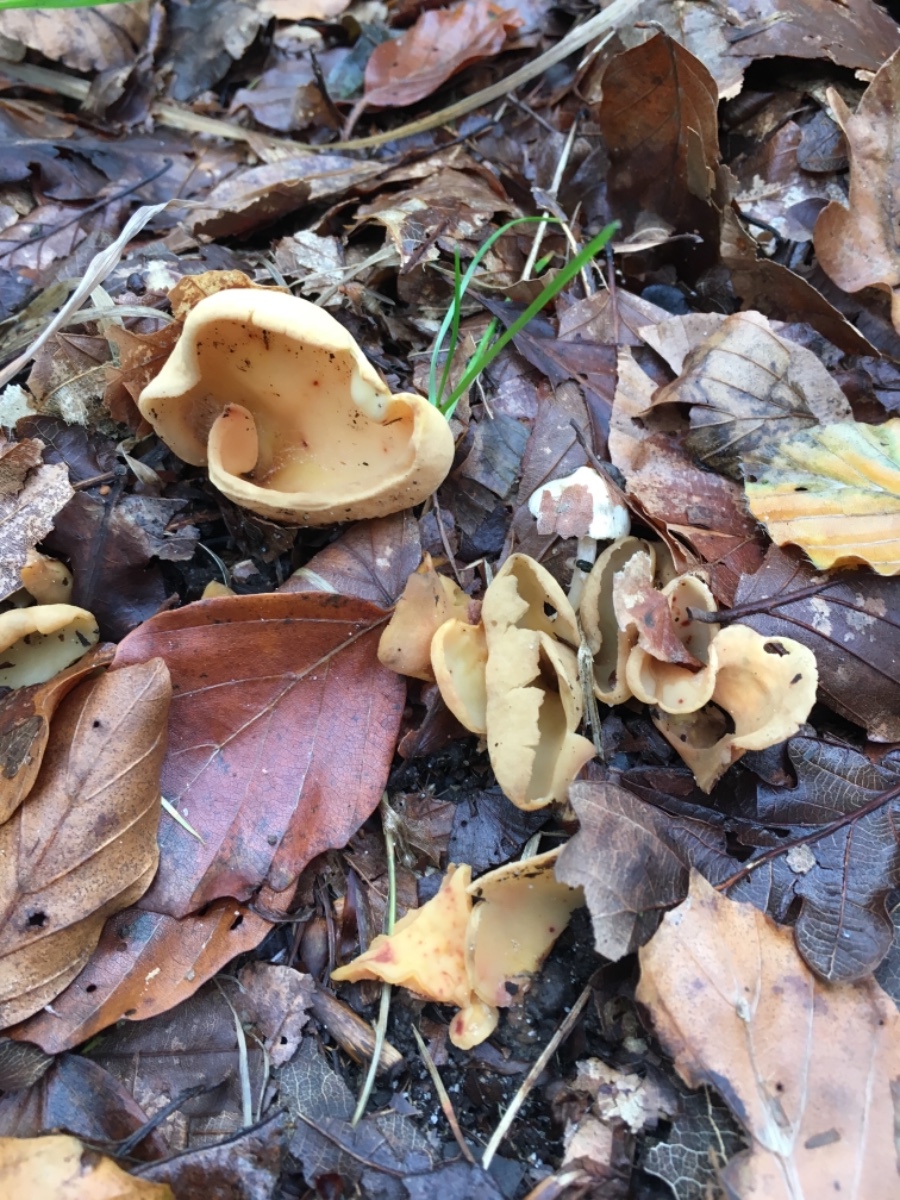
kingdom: Fungi
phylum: Ascomycota
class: Pezizomycetes
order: Pezizales
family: Otideaceae
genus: Otidea
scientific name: Otidea onotica
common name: æsel-ørebæger
